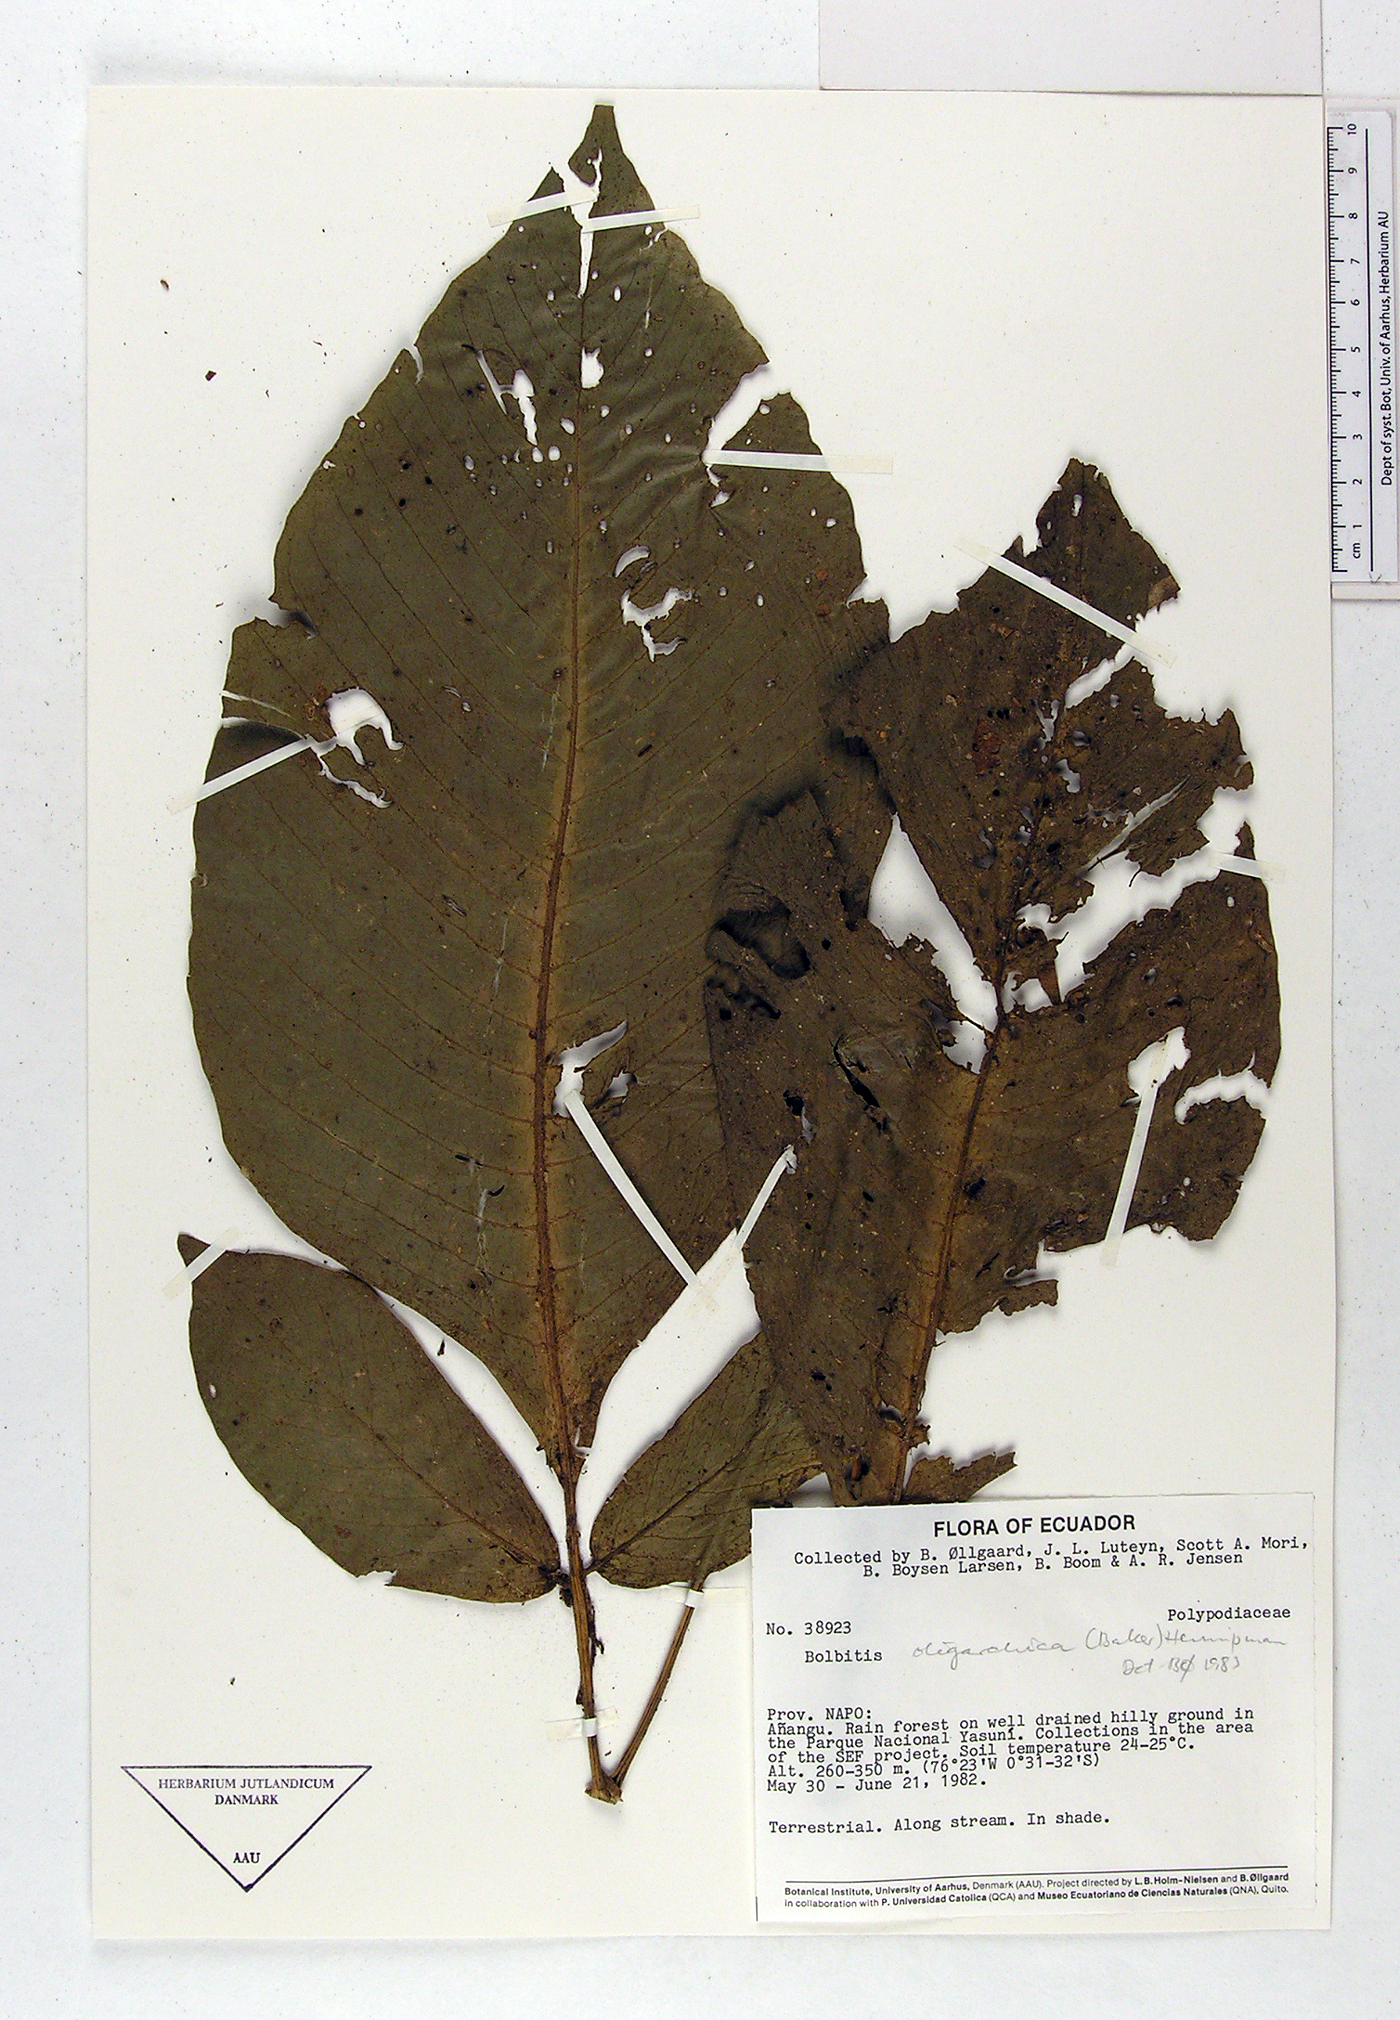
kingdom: Plantae
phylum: Tracheophyta
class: Polypodiopsida
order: Polypodiales
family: Dryopteridaceae
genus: Mickelia
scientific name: Mickelia oligarchica
